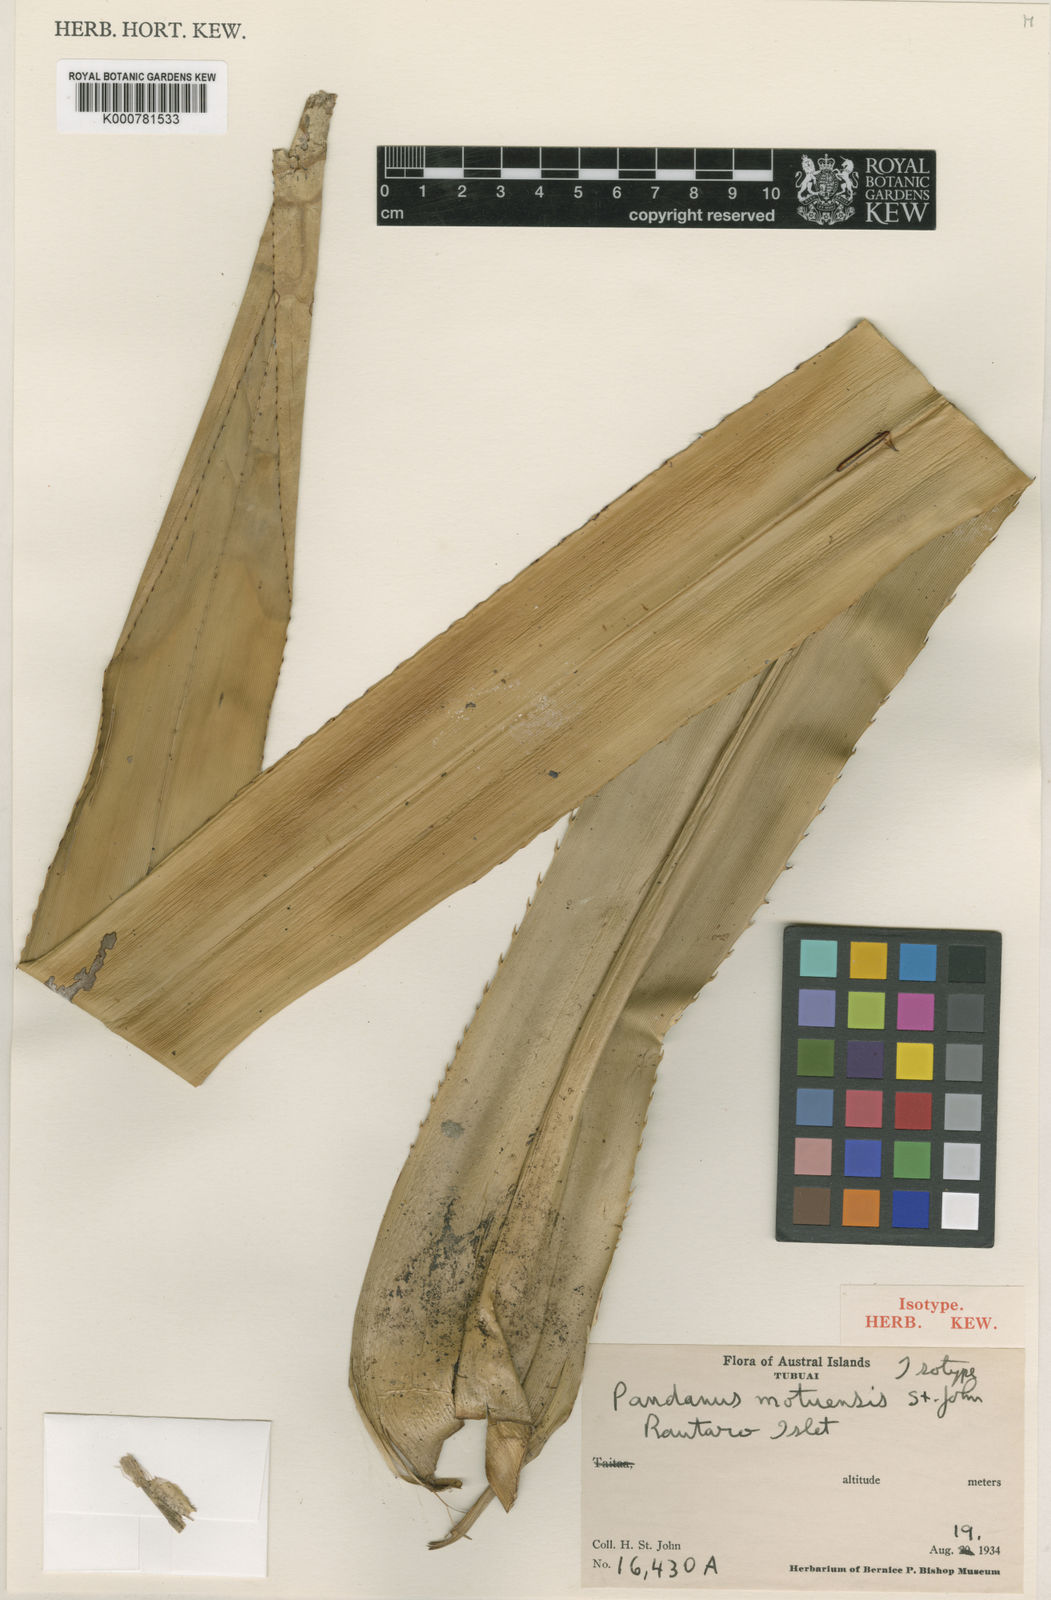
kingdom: Plantae
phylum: Tracheophyta
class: Liliopsida
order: Pandanales
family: Pandanaceae
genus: Pandanus
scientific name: Pandanus
